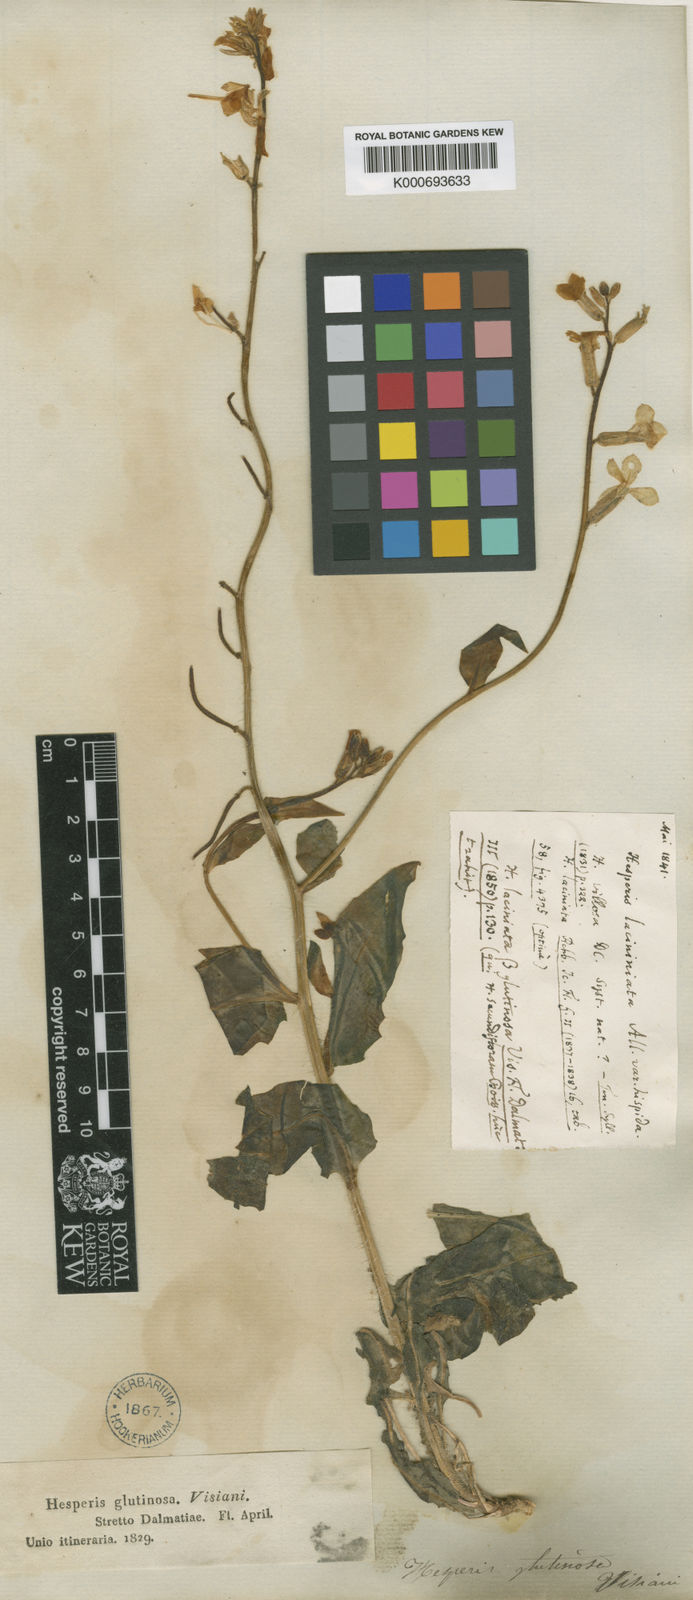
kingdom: Plantae
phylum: Tracheophyta
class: Magnoliopsida
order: Brassicales
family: Brassicaceae
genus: Hesperis
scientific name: Hesperis laciniata
